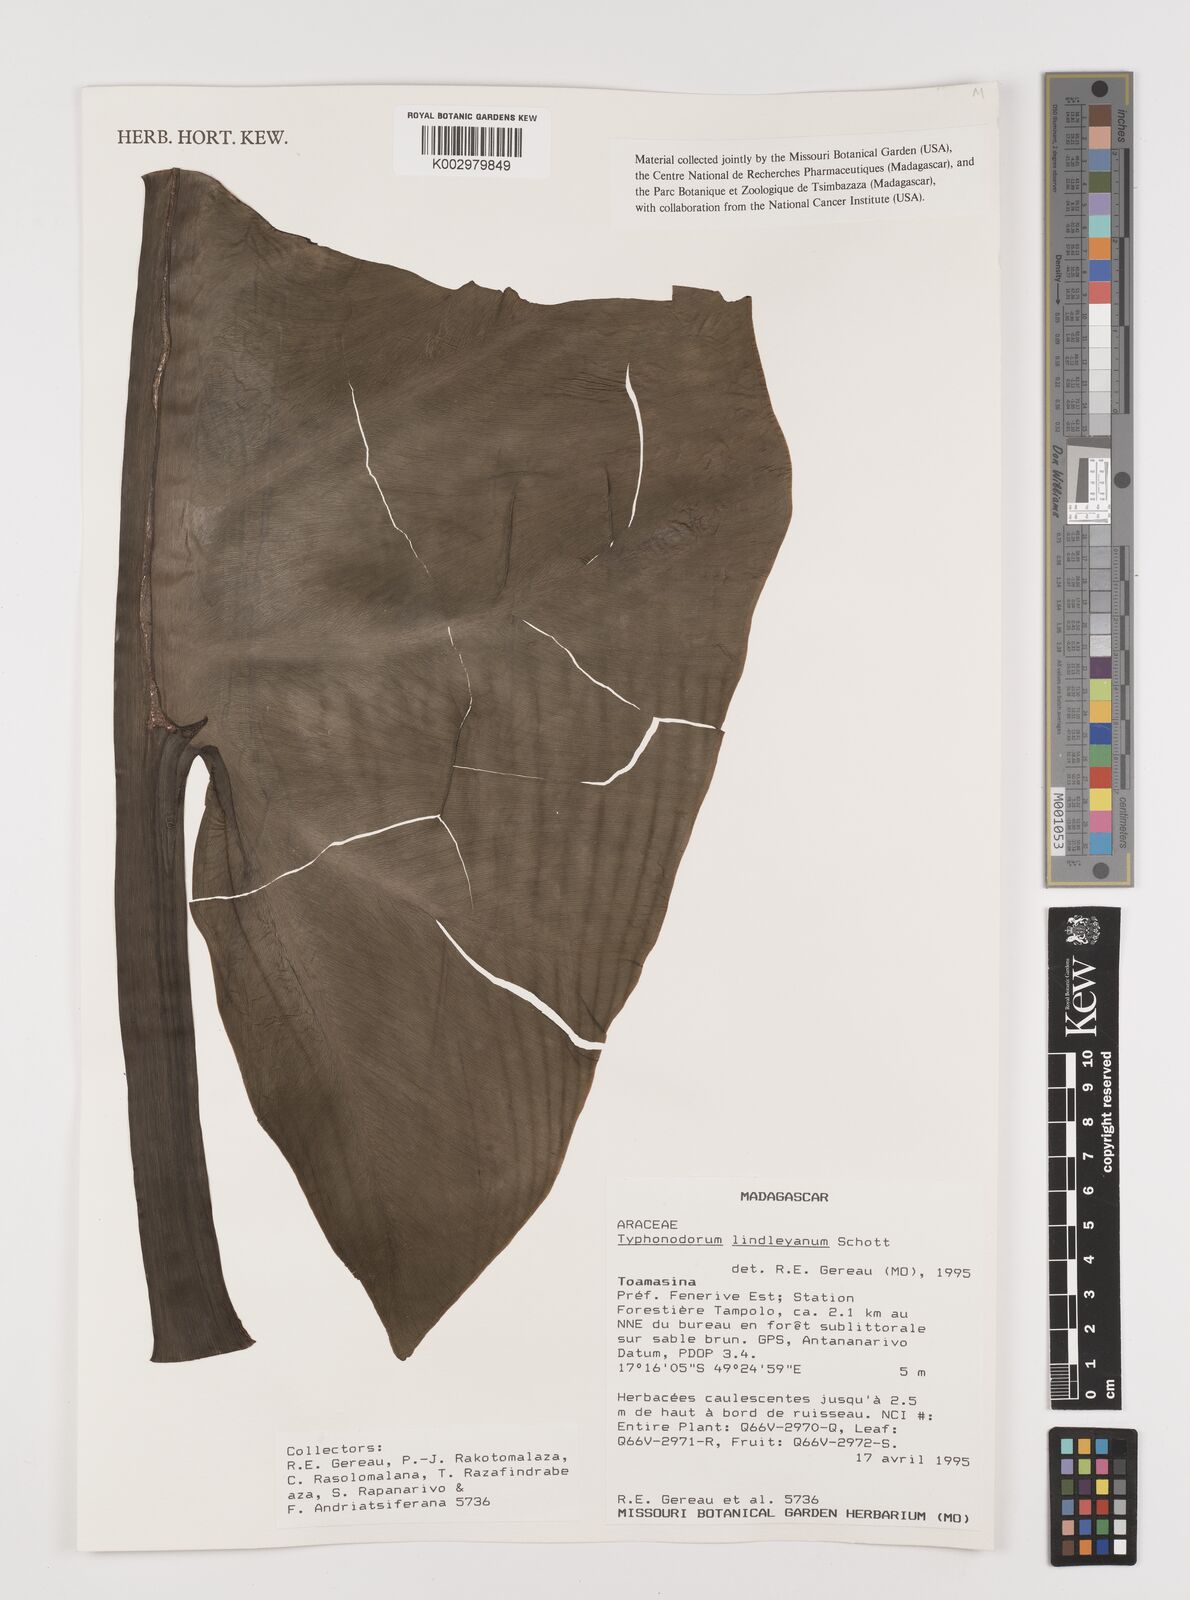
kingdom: Plantae
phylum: Tracheophyta
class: Liliopsida
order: Alismatales
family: Araceae
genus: Typhonodorum
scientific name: Typhonodorum lindleyanum
